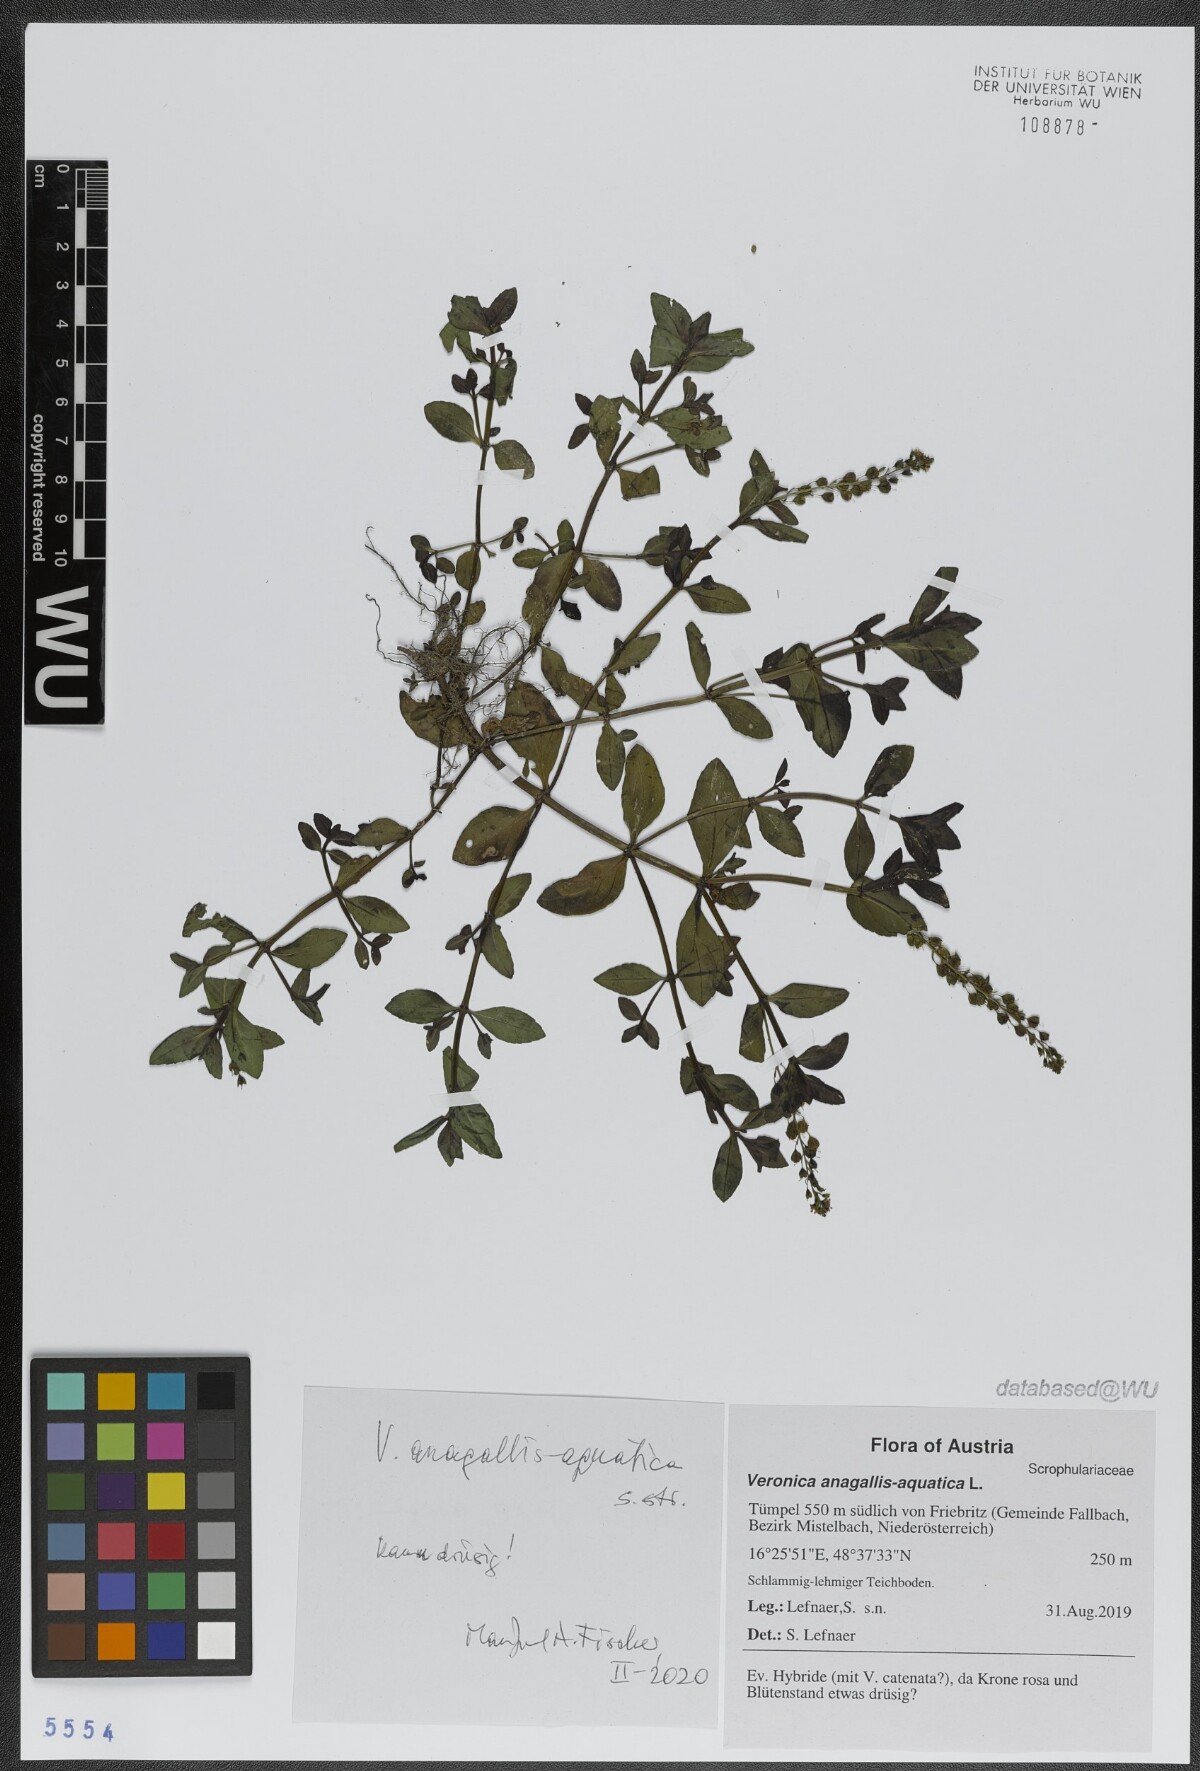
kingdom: Plantae
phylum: Tracheophyta
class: Magnoliopsida
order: Lamiales
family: Plantaginaceae
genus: Veronica
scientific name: Veronica anagallis-aquatica
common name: Water speedwell
